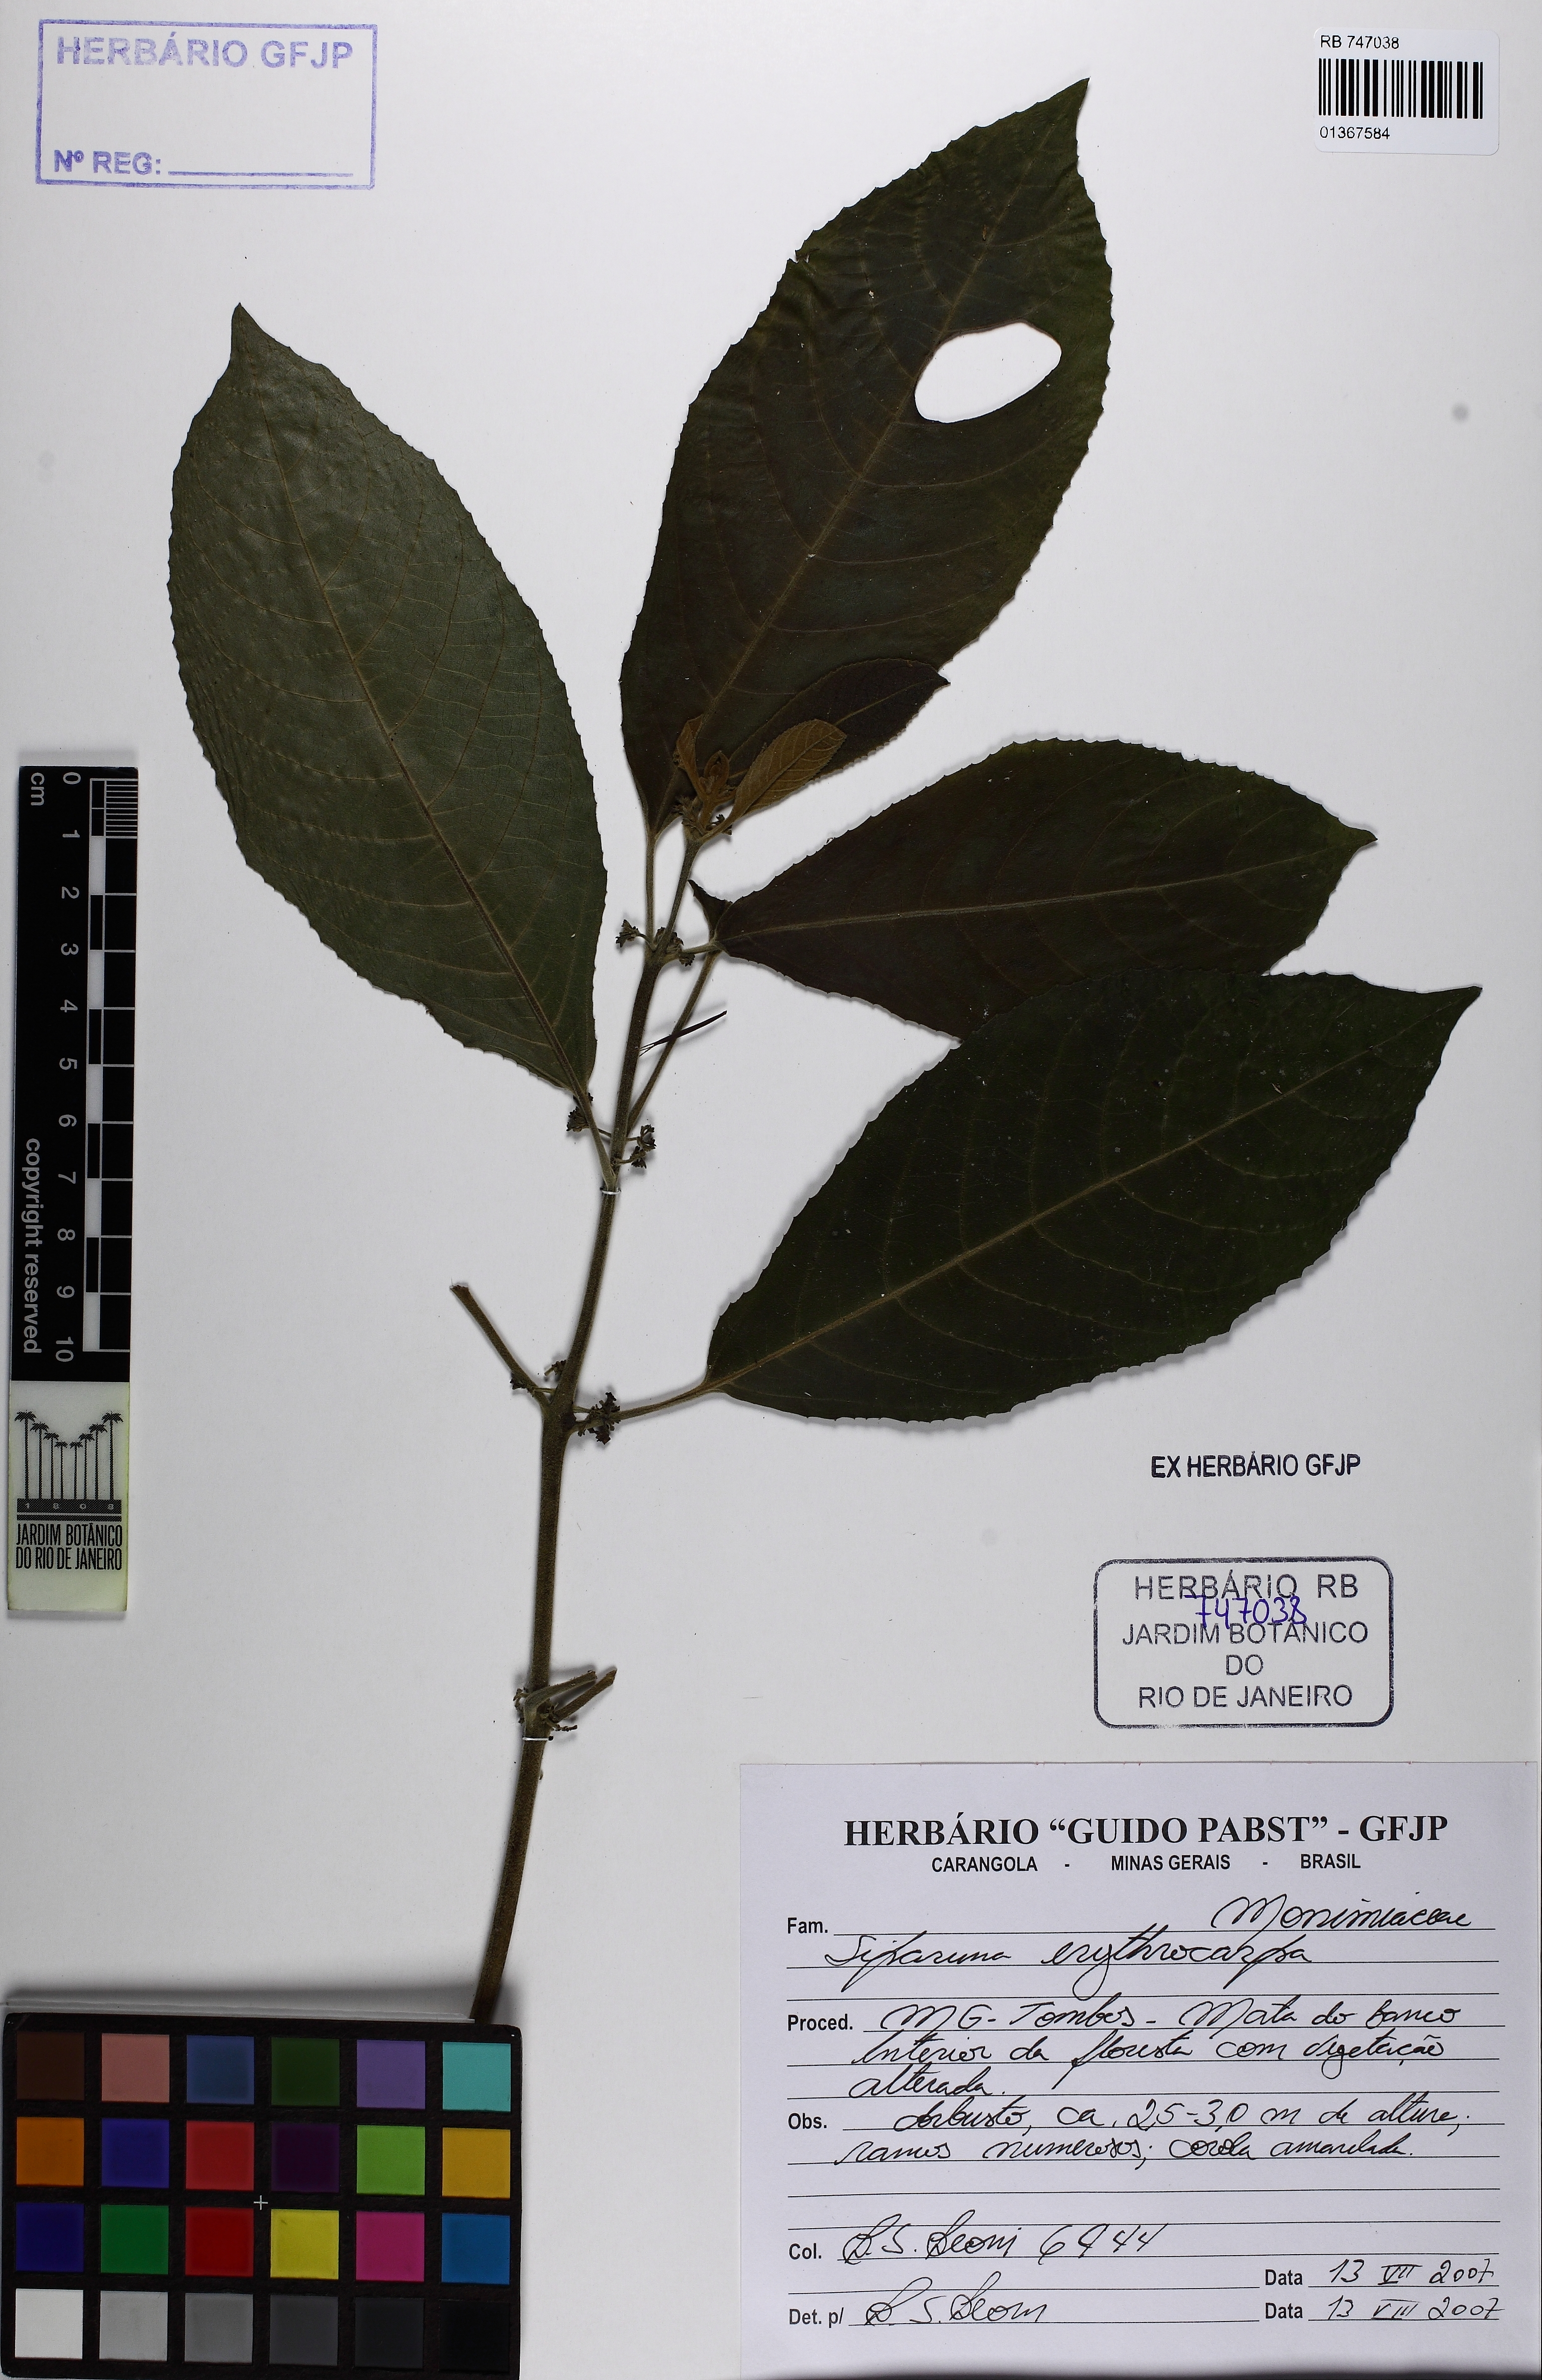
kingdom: Plantae
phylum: Tracheophyta
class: Magnoliopsida
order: Laurales
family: Siparunaceae
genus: Siparuna
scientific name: Siparuna brasiliensis
